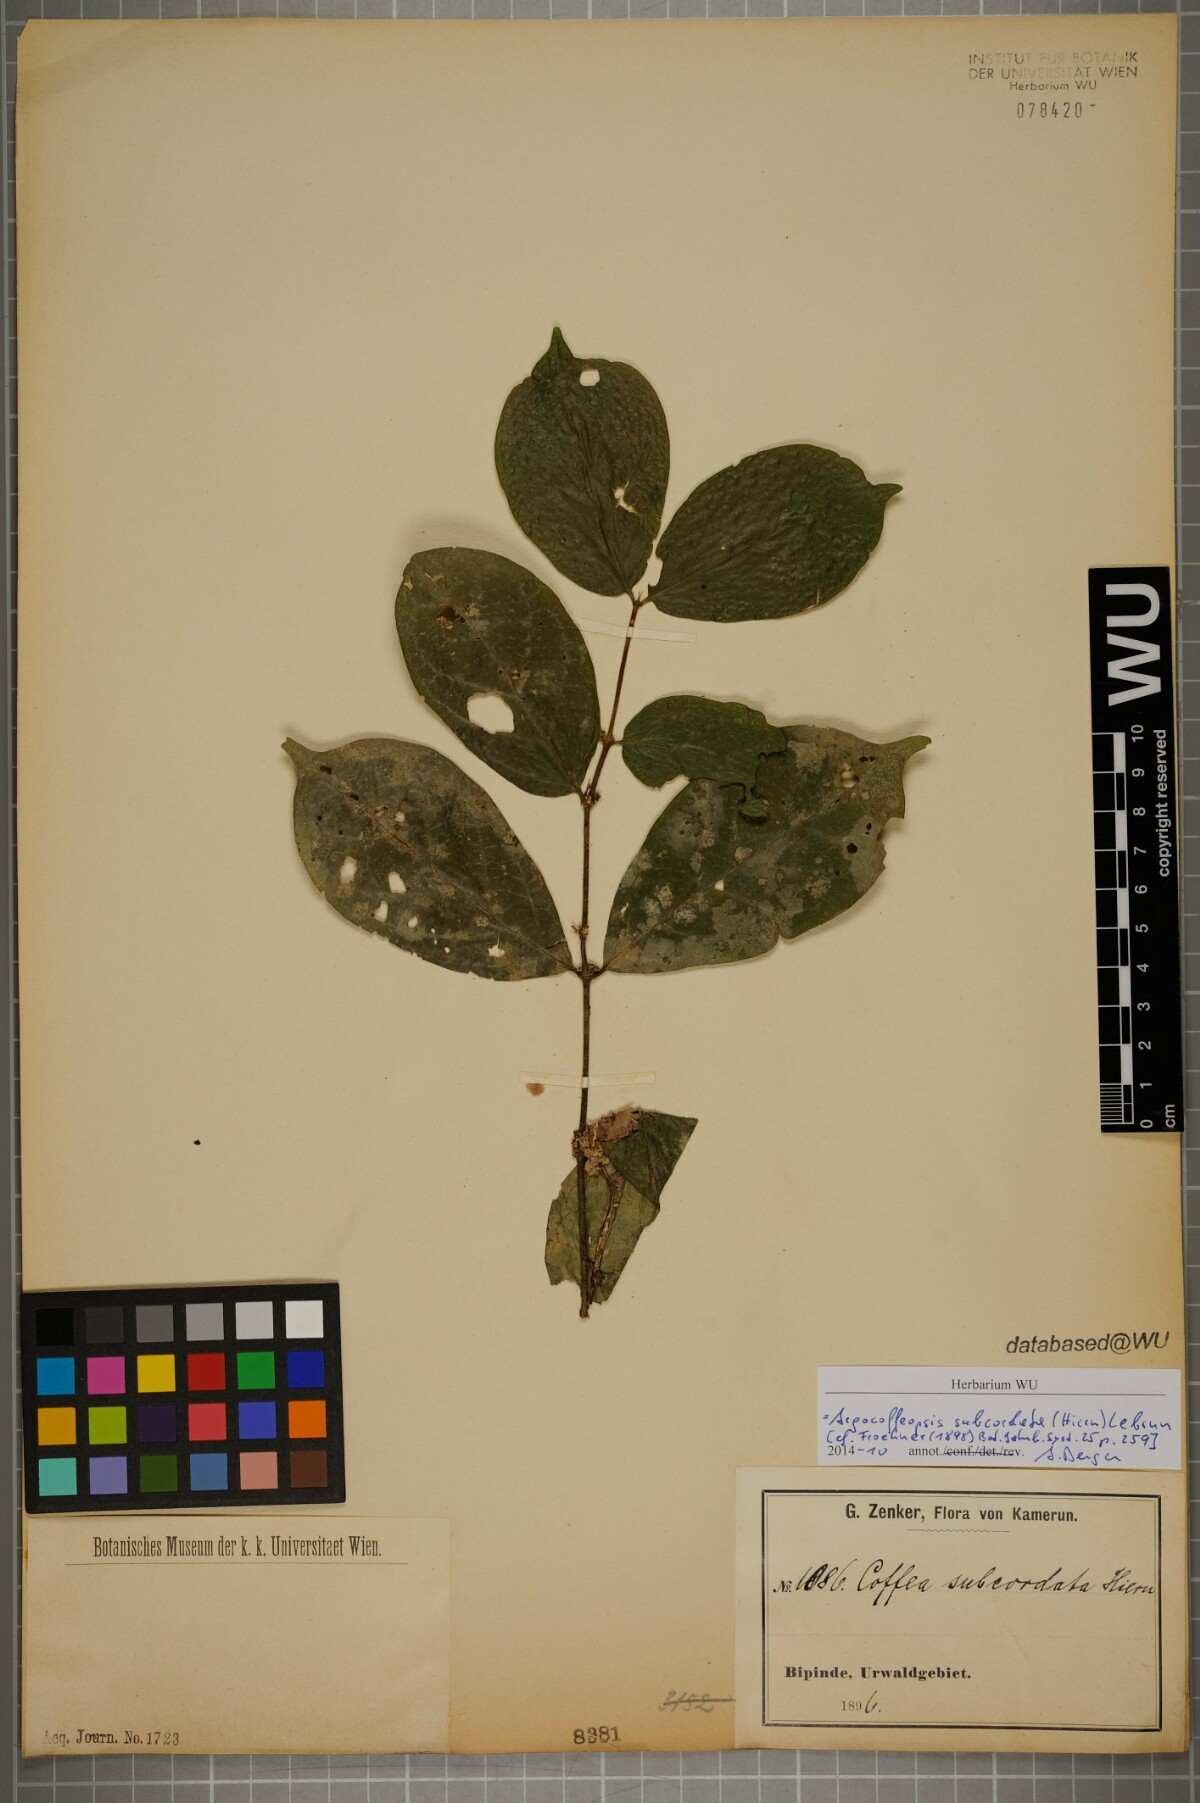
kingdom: Plantae
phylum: Tracheophyta
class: Magnoliopsida
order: Gentianales
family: Rubiaceae
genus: Argocoffeopsis
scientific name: Argocoffeopsis subcordata
